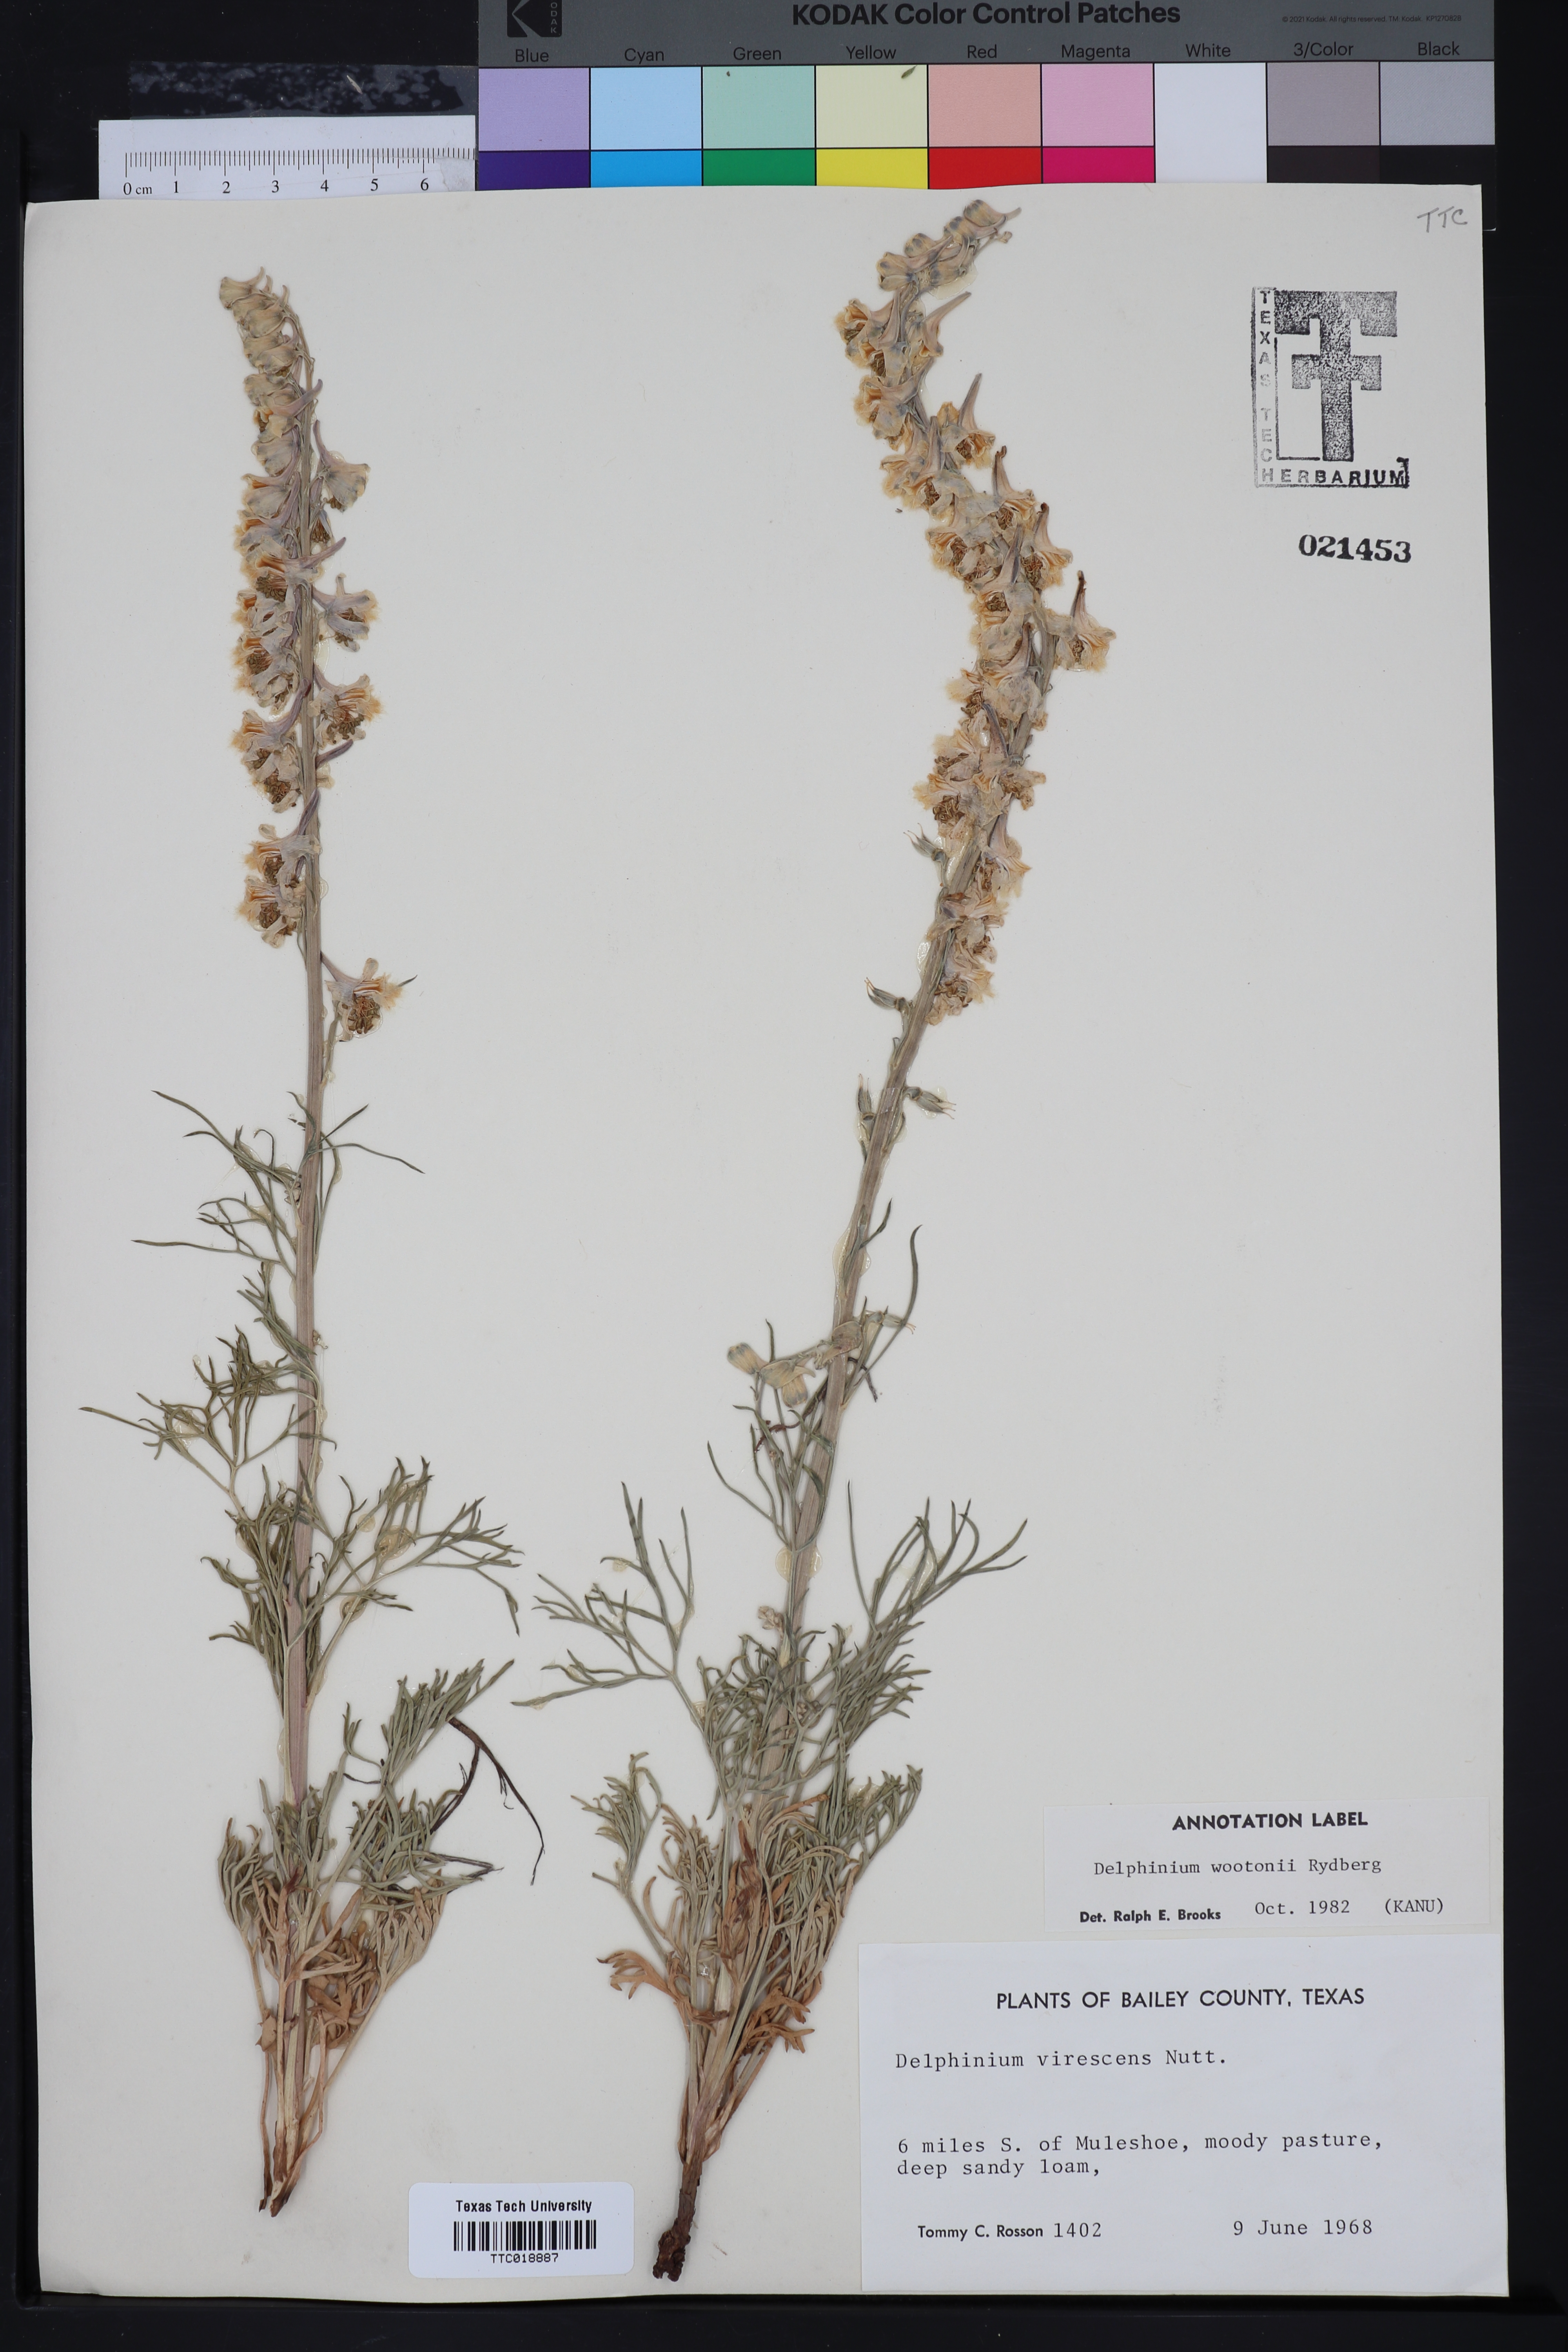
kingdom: Plantae
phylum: Tracheophyta
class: Magnoliopsida
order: Ranunculales
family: Ranunculaceae
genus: Delphinium
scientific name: Delphinium wootonii
